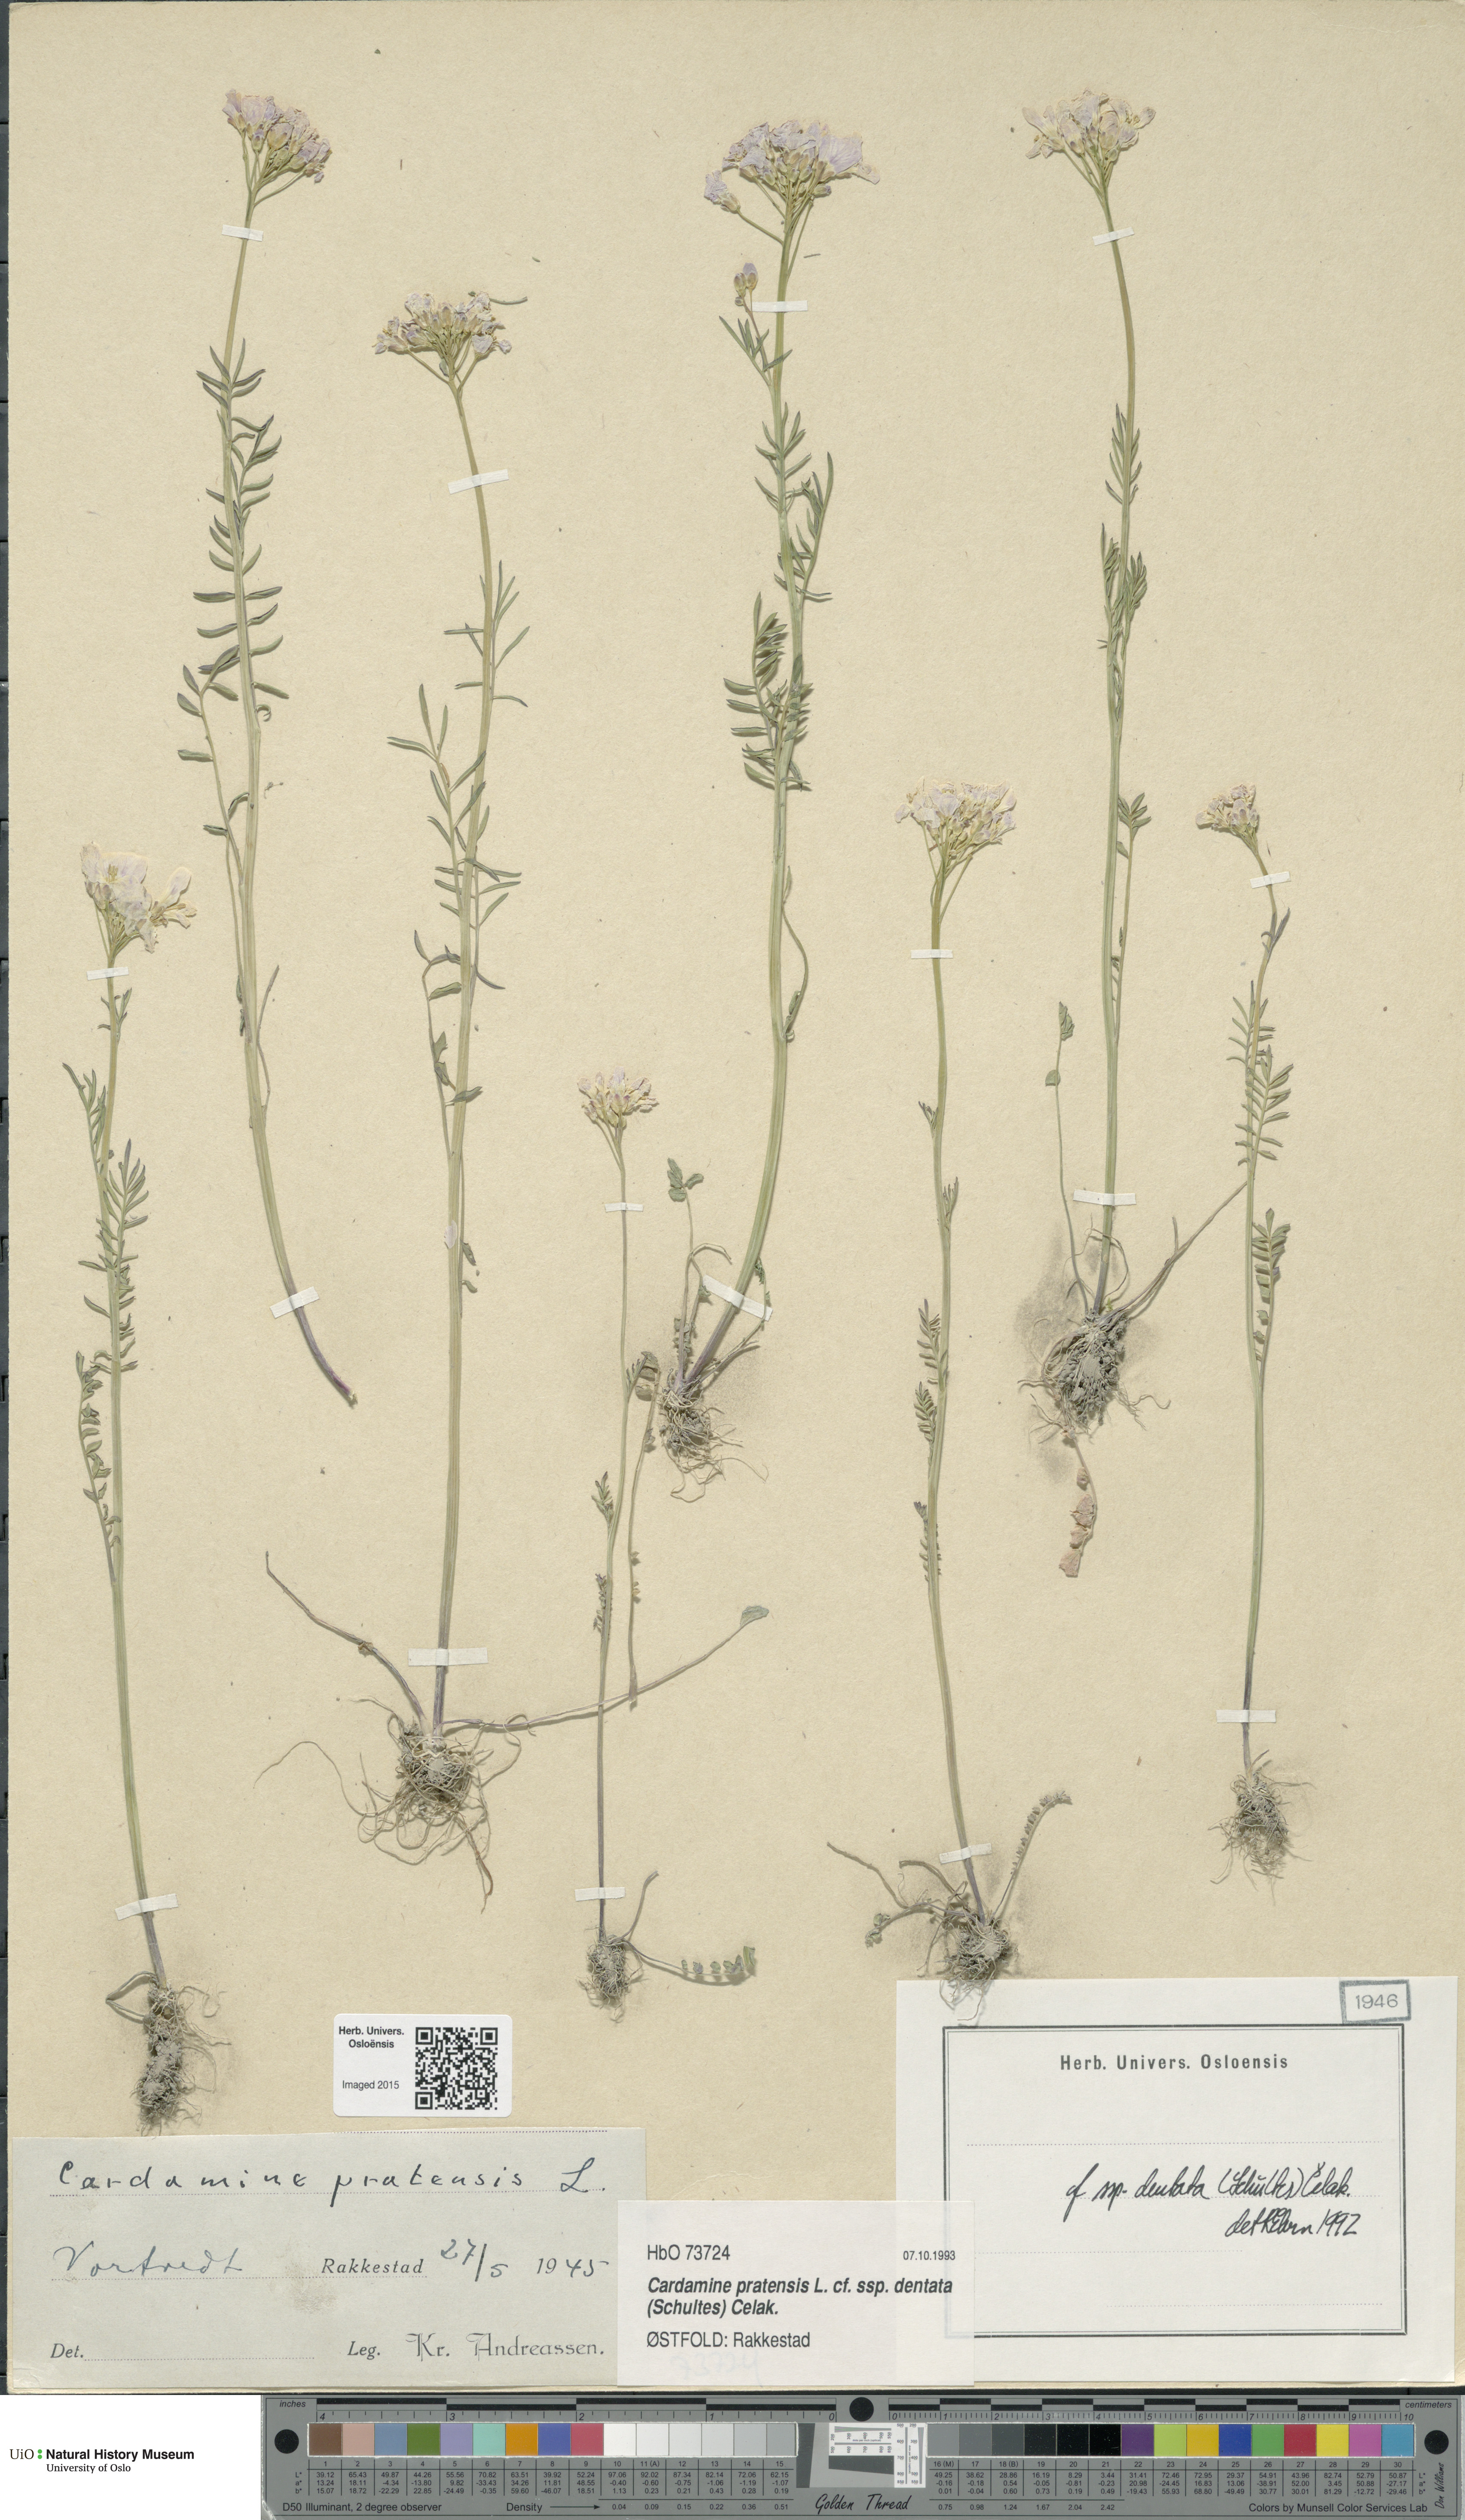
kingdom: Plantae
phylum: Tracheophyta
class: Magnoliopsida
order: Brassicales
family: Brassicaceae
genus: Cardamine
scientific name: Cardamine dentata
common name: Toothed bittercress
